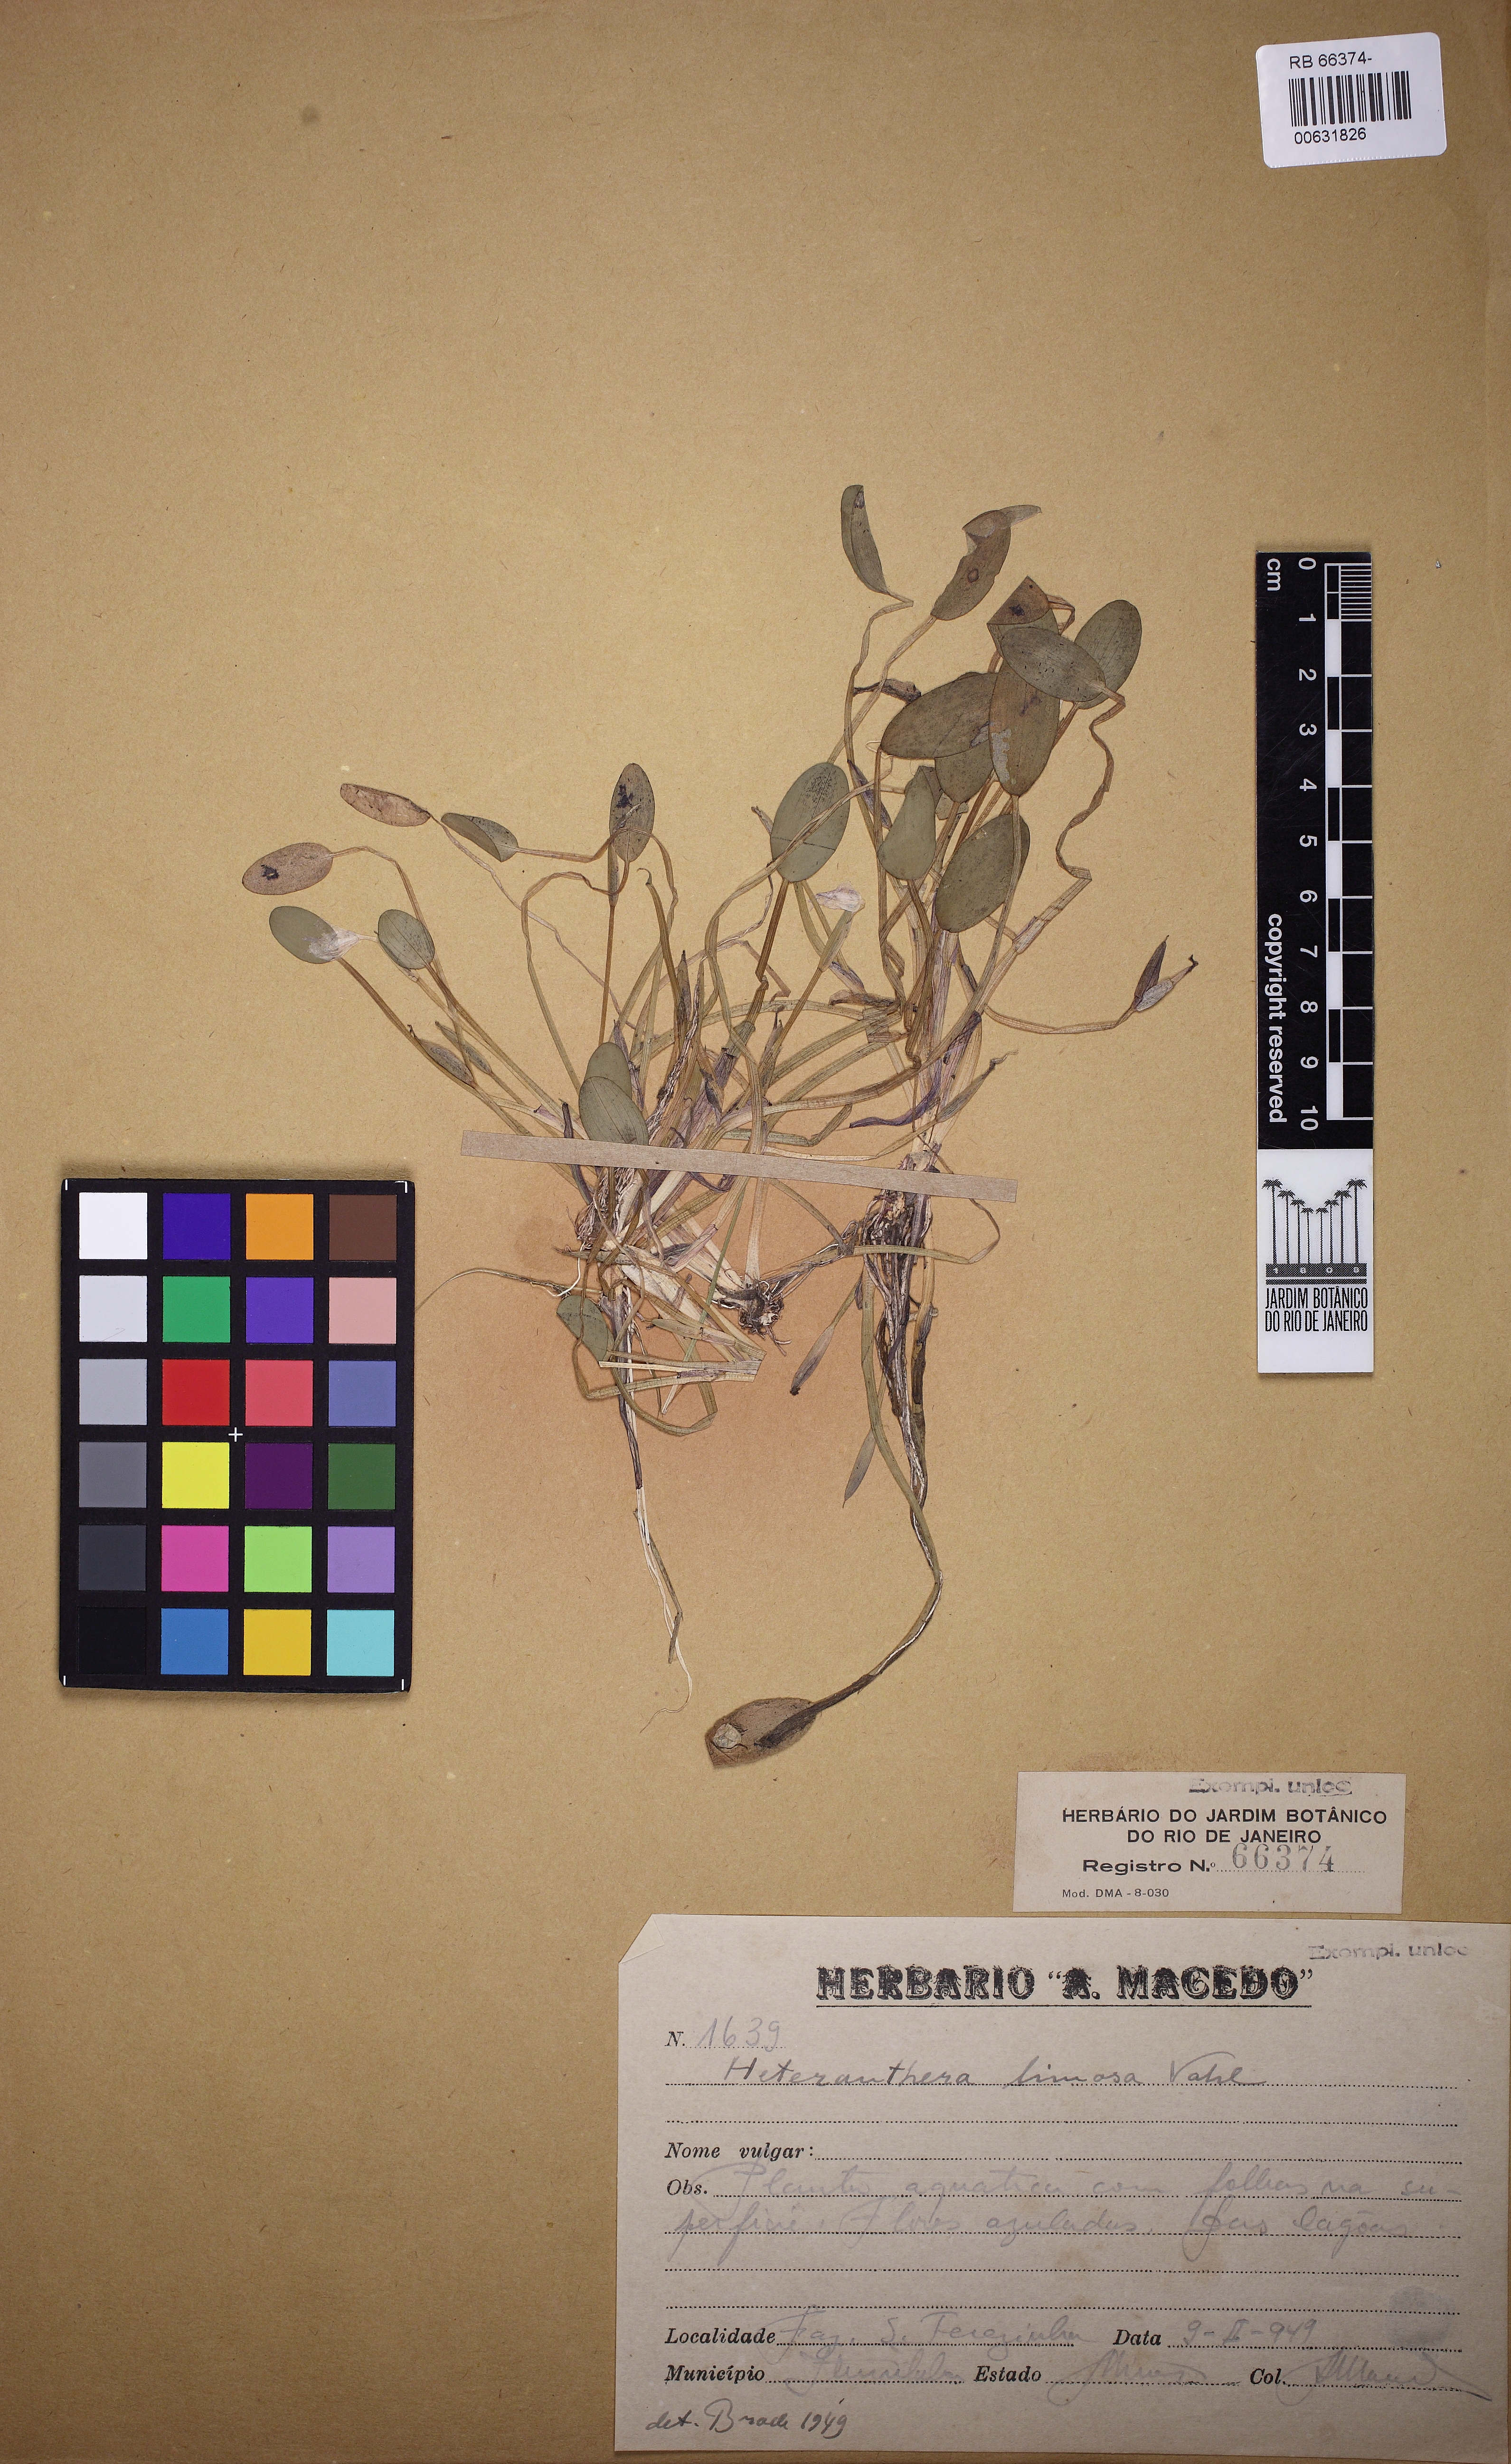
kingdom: Plantae
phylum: Tracheophyta
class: Liliopsida
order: Commelinales
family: Pontederiaceae
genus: Heteranthera
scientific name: Heteranthera rotundifolia
